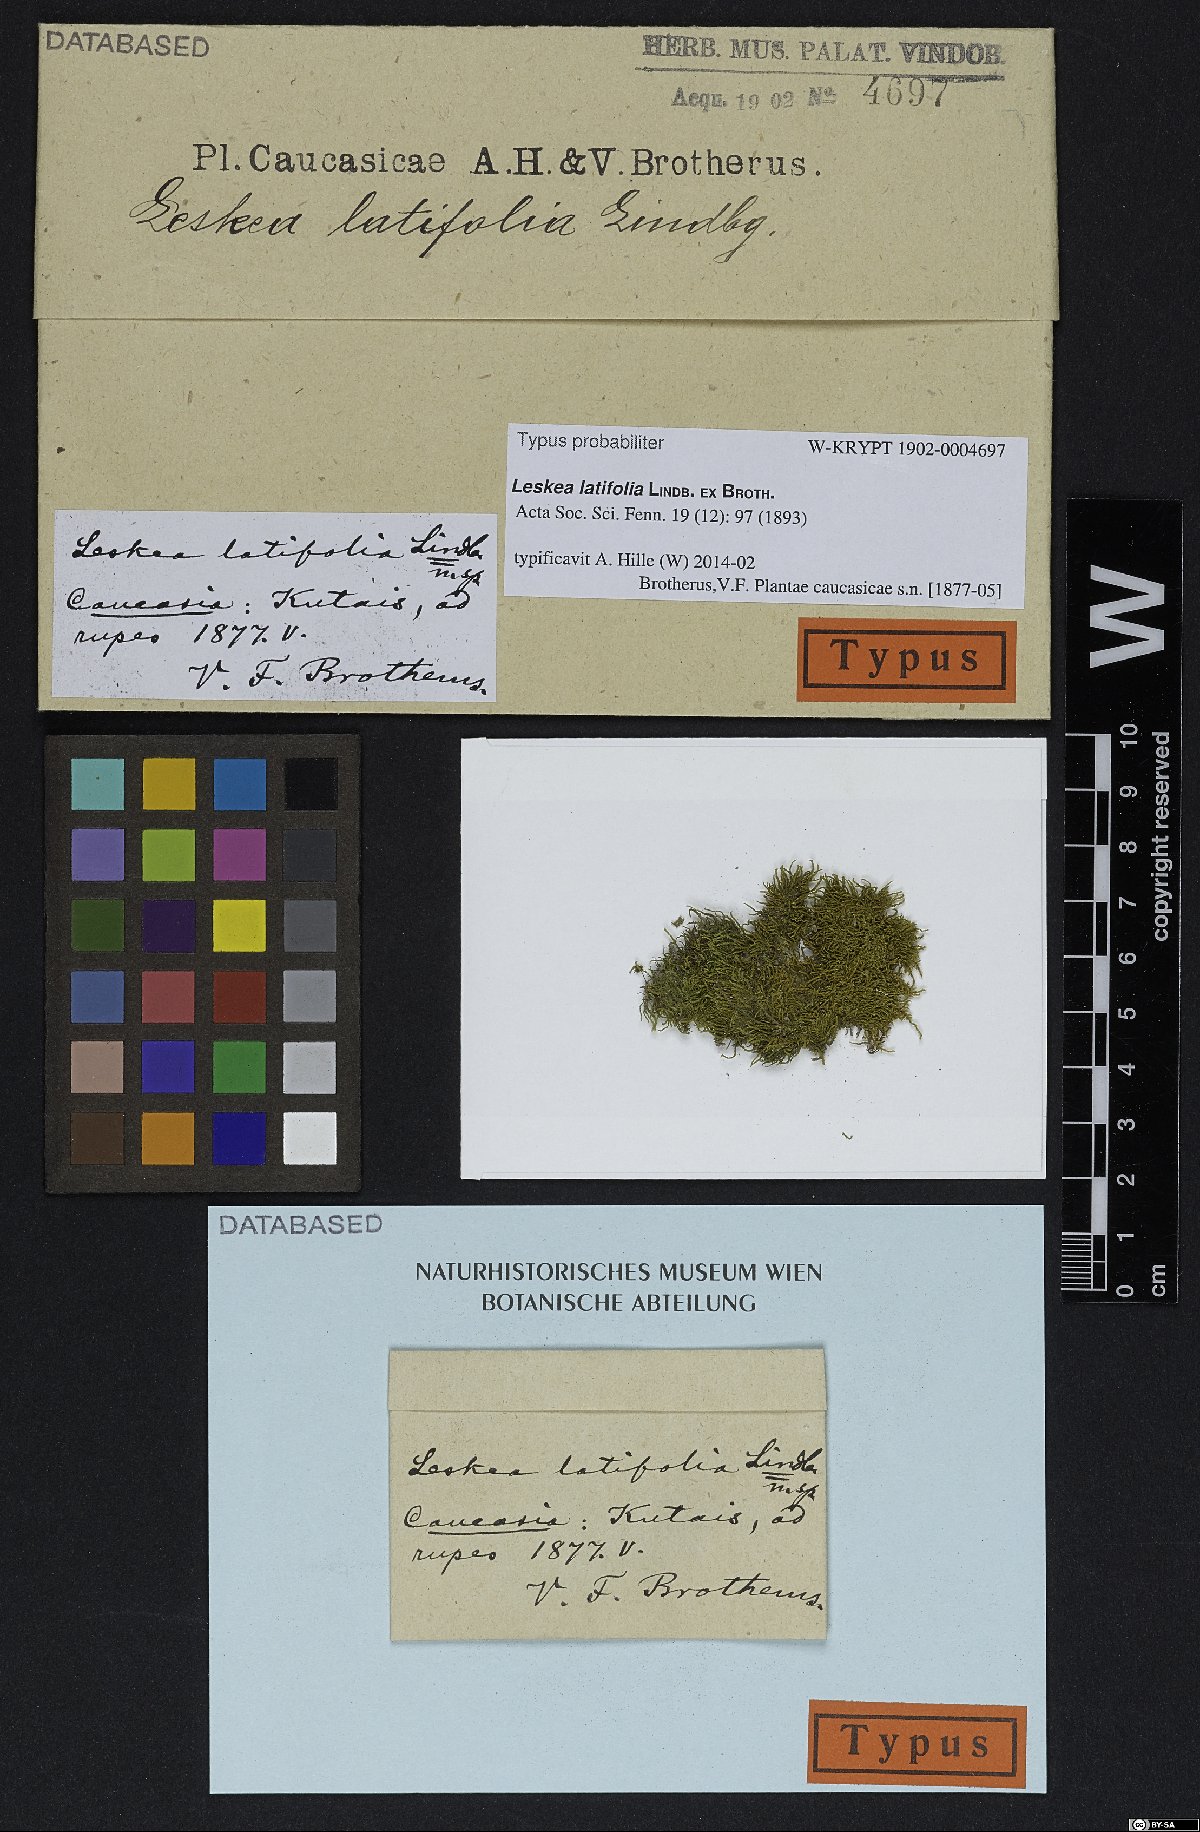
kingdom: Plantae
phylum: Bryophyta
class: Bryopsida
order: Hypnales
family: Leskeaceae
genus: Leskea
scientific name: Leskea latifolia
